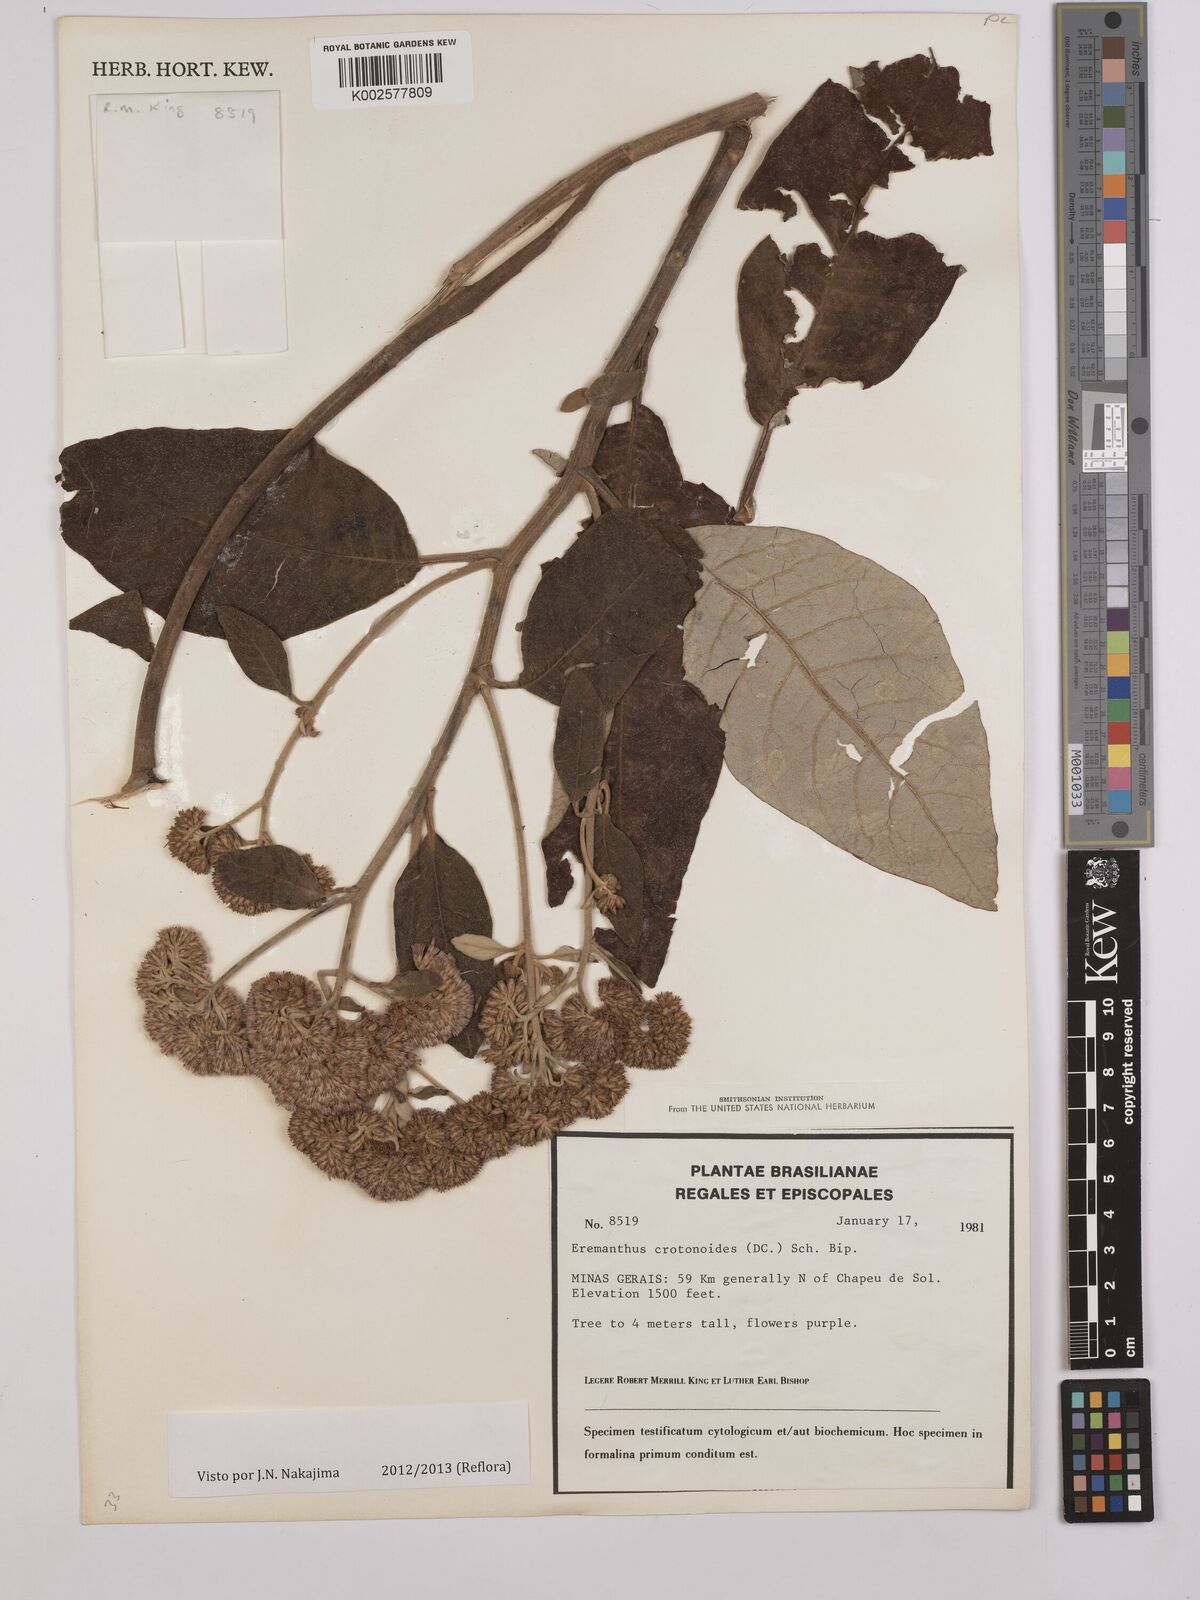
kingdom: Plantae
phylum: Tracheophyta
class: Magnoliopsida
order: Asterales
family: Asteraceae
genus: Eremanthus
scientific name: Eremanthus crotonoides
